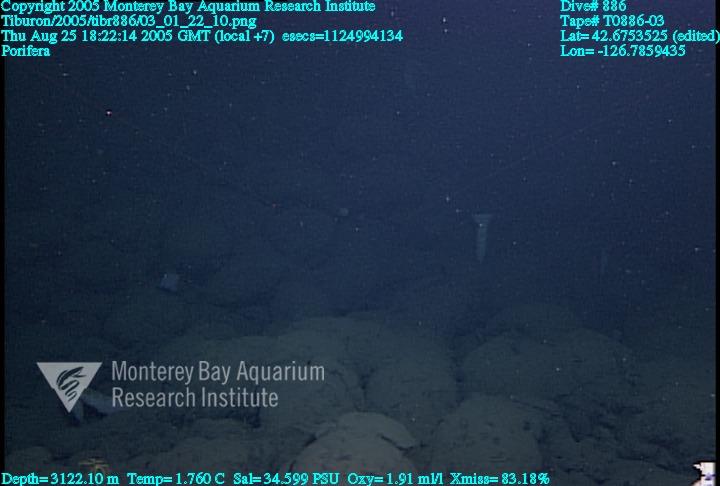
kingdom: Animalia
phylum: Porifera
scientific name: Porifera
